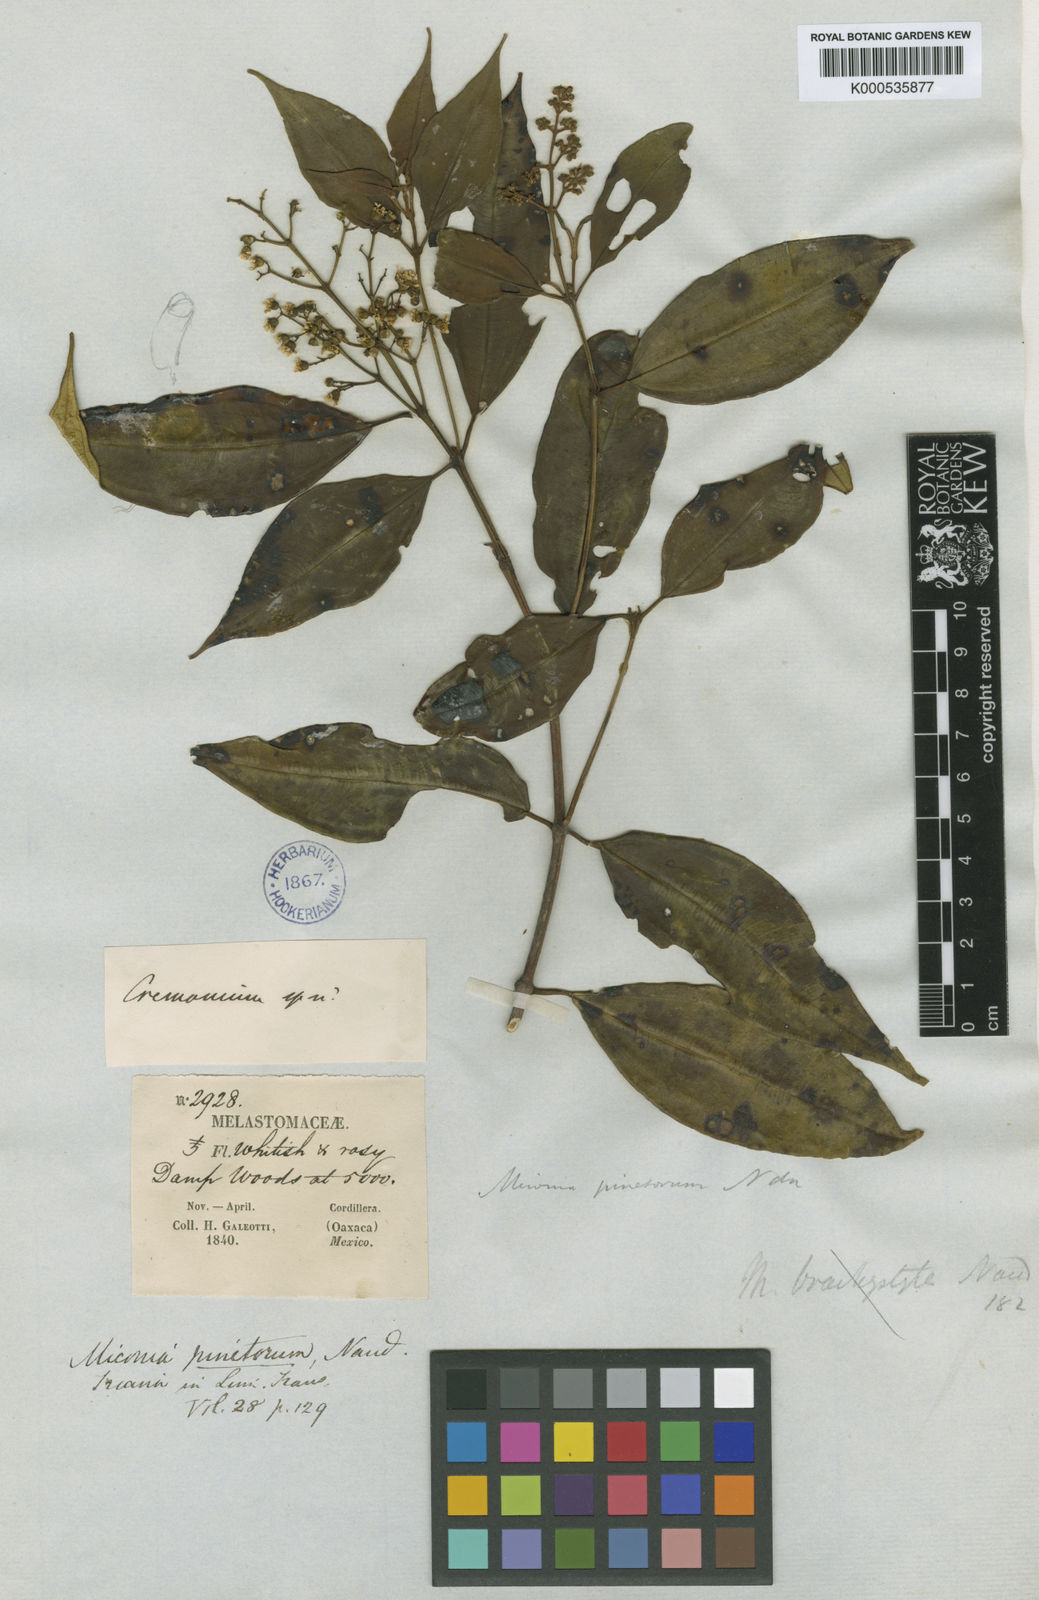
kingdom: Plantae
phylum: Tracheophyta
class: Magnoliopsida
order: Myrtales
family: Melastomataceae
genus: Miconia
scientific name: Miconia pinetorum
